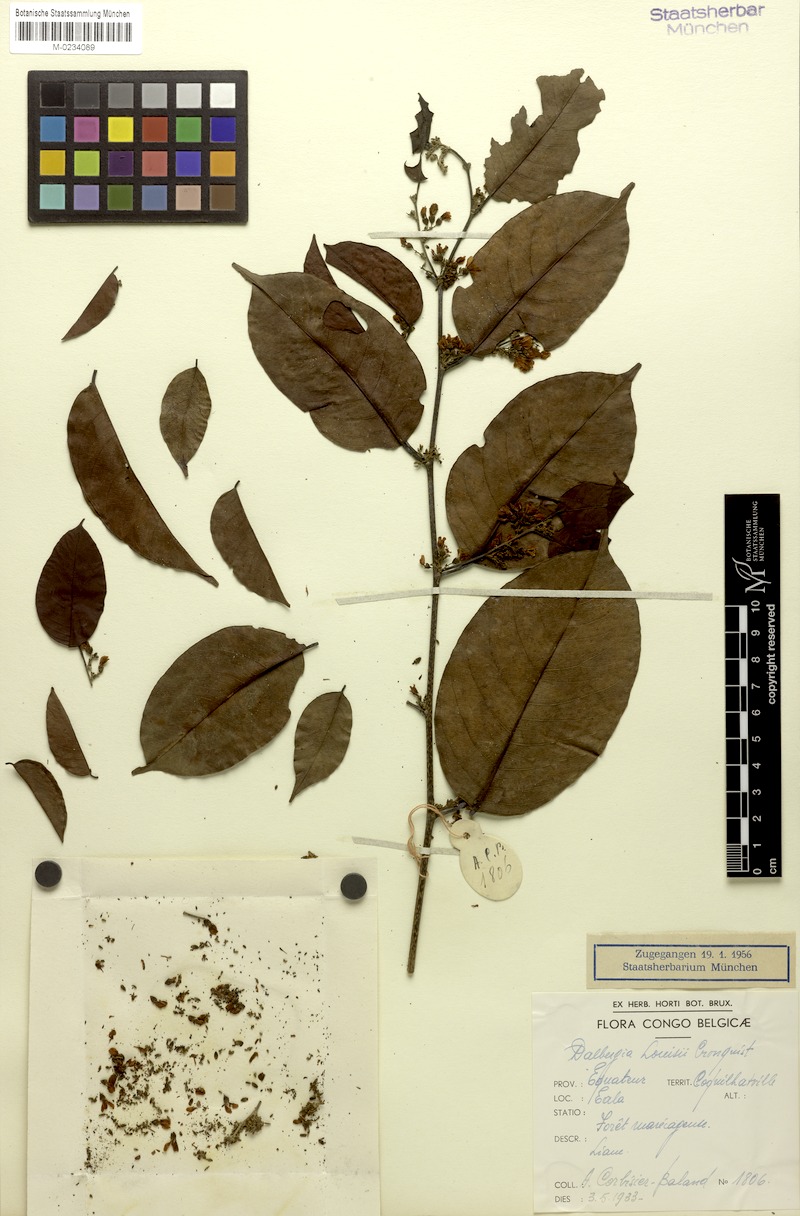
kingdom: Plantae
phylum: Tracheophyta
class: Magnoliopsida
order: Fabales
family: Fabaceae
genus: Dalbergia
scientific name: Dalbergia louisii
